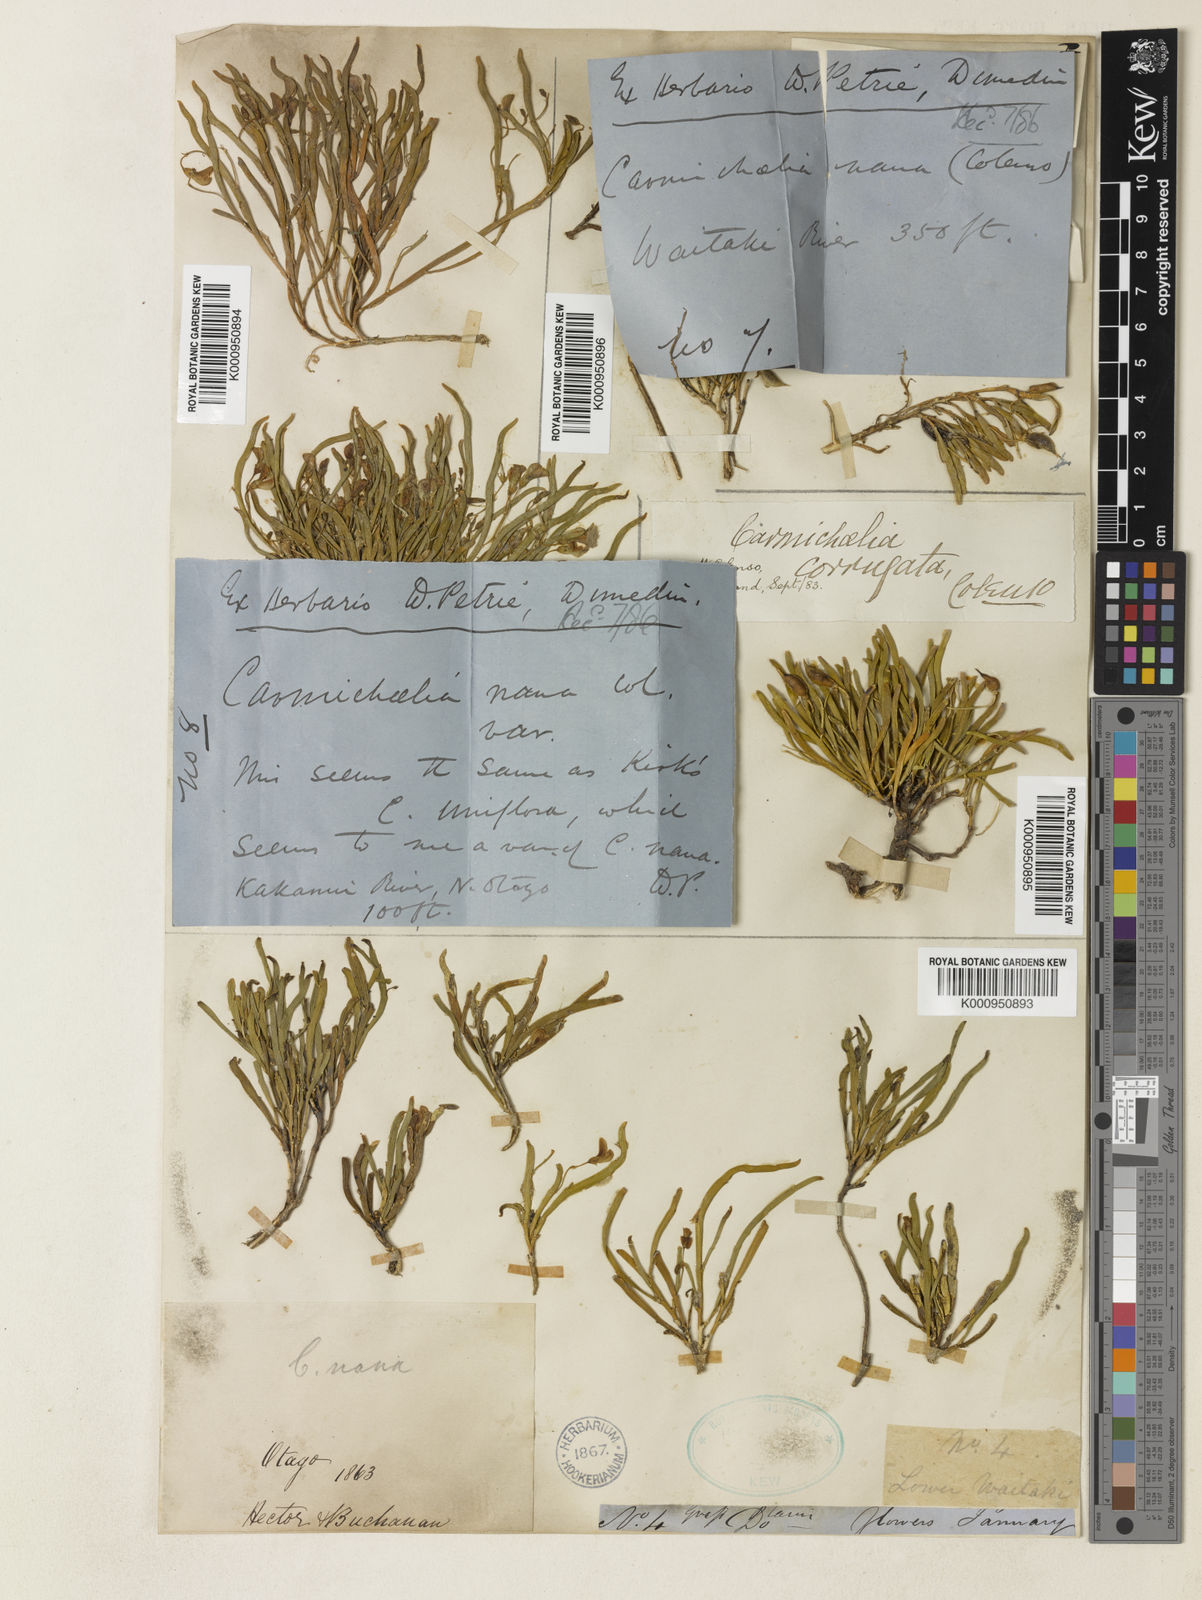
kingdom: Plantae
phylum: Tracheophyta
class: Magnoliopsida
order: Fabales
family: Fabaceae
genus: Carmichaelia
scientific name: Carmichaelia corrugata
